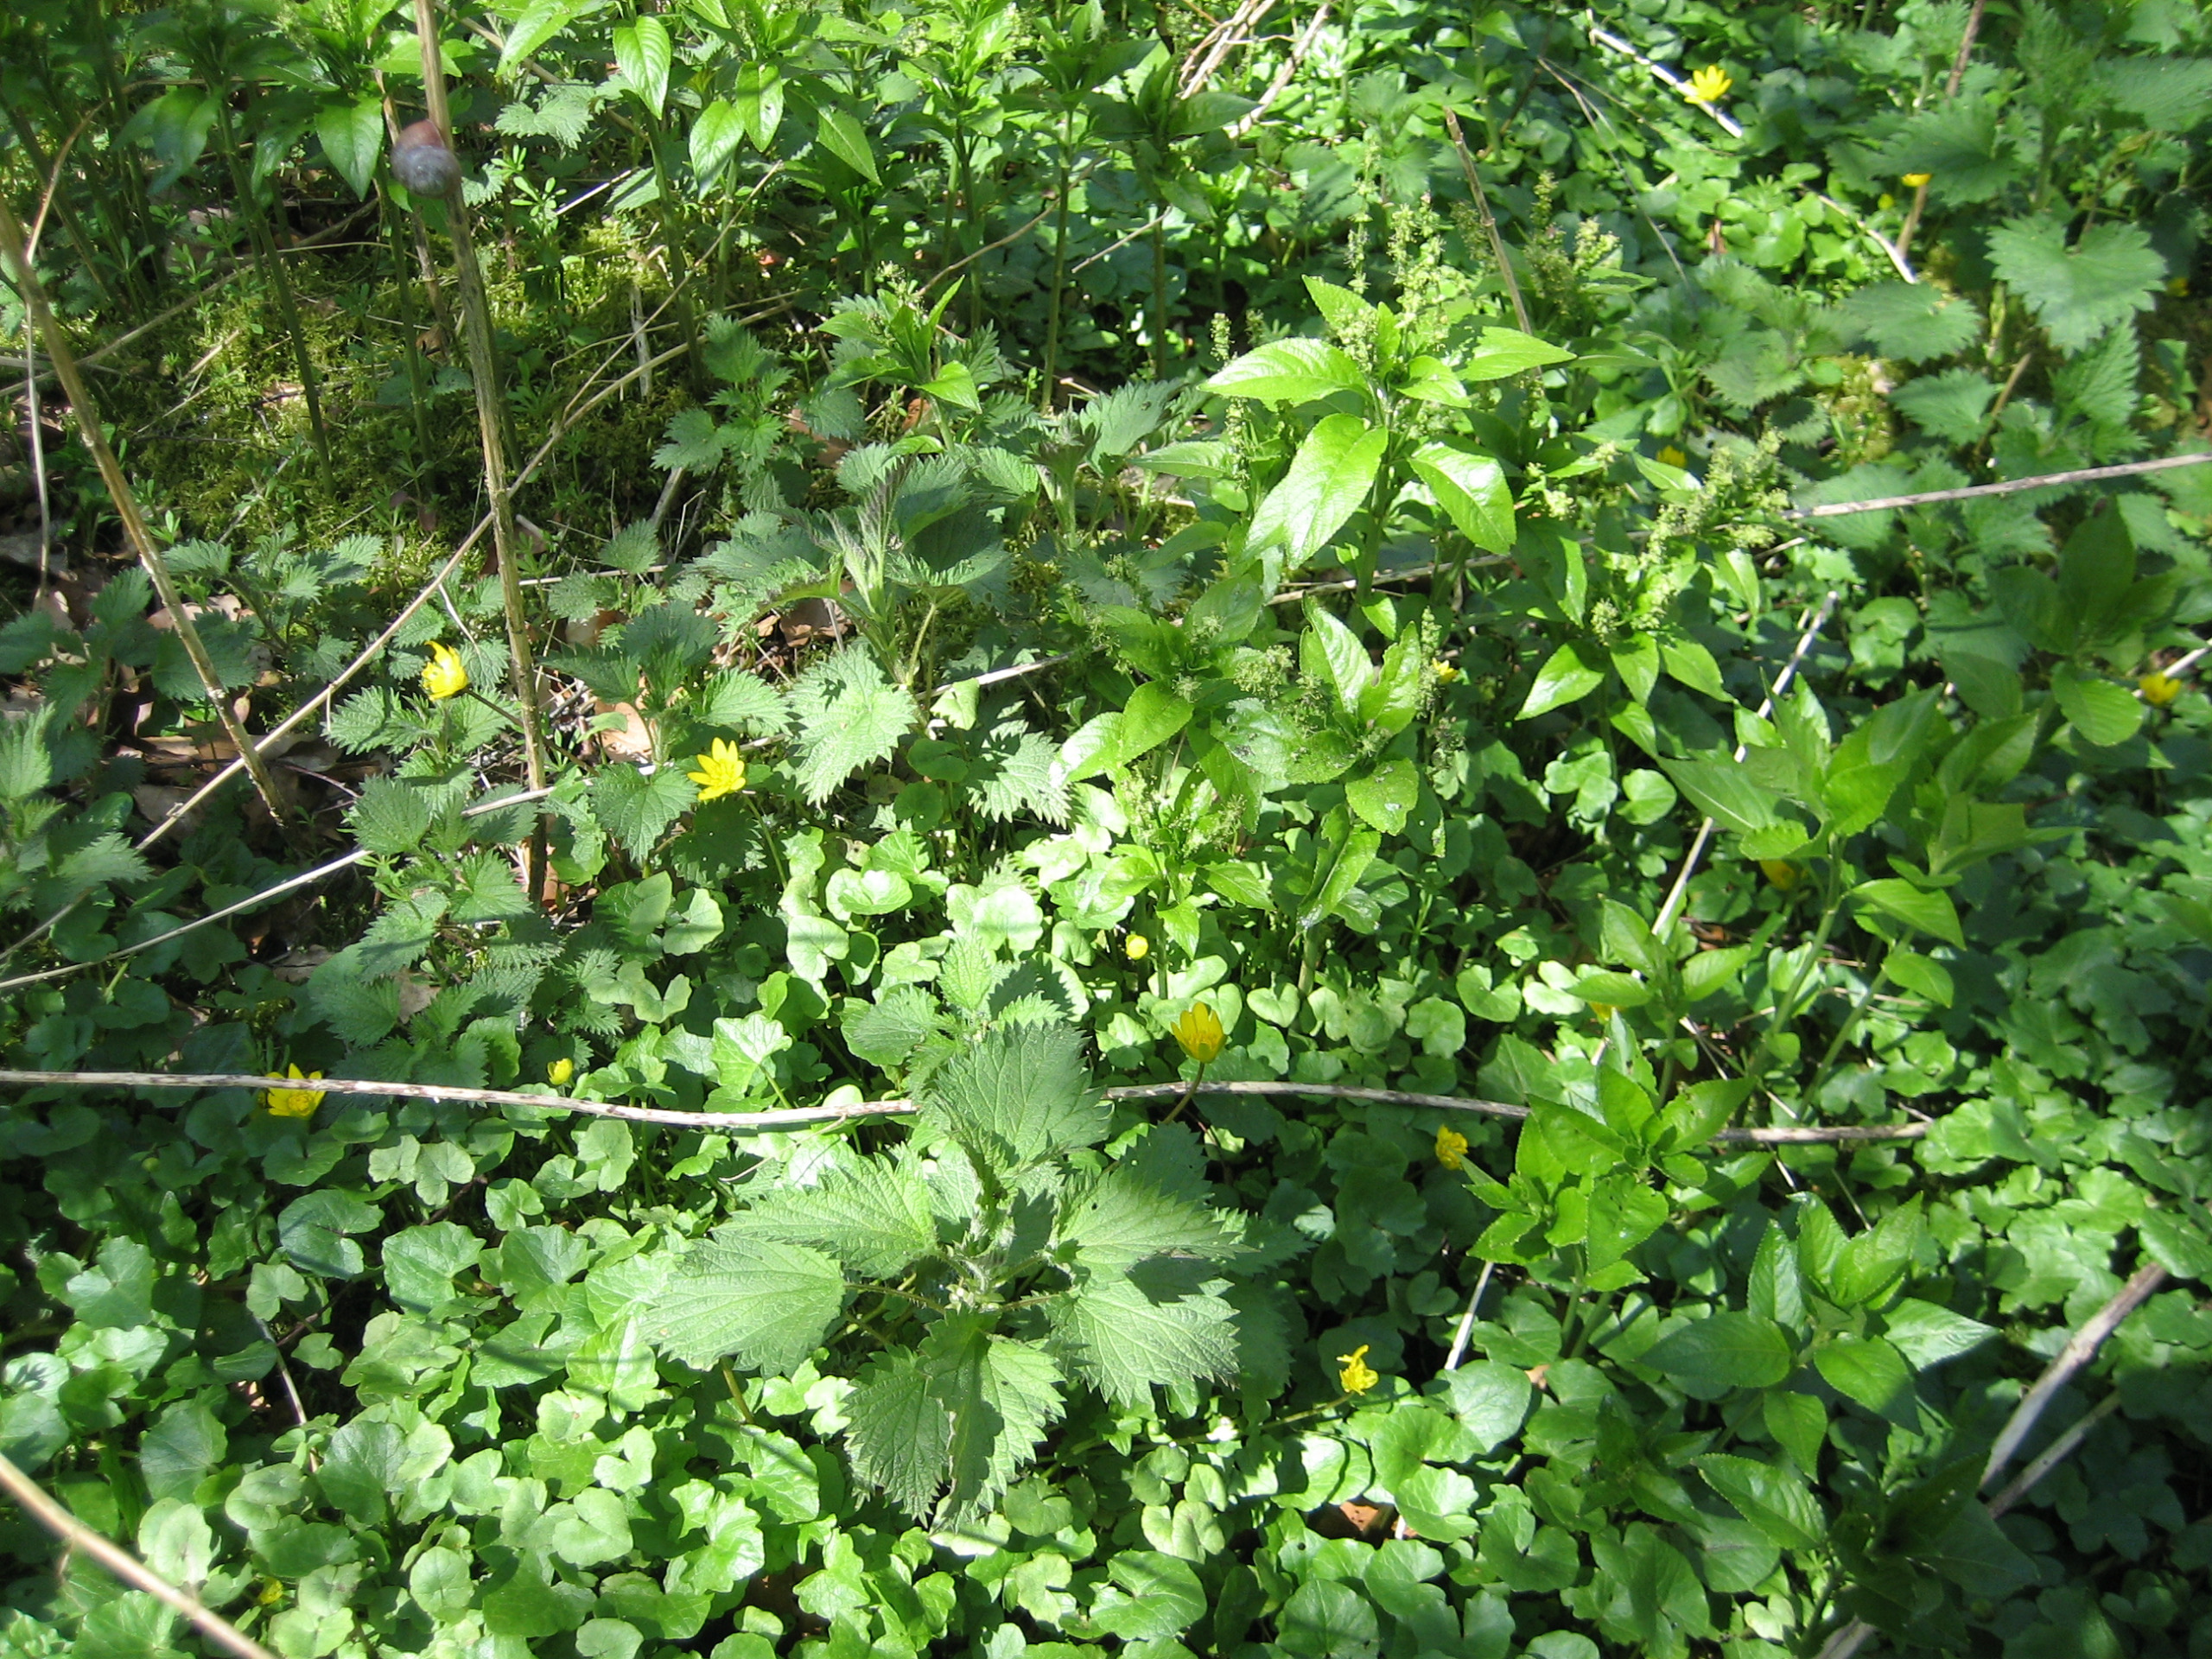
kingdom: Plantae
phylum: Tracheophyta
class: Magnoliopsida
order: Malpighiales
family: Euphorbiaceae
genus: Mercurialis
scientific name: Mercurialis perennis
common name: Almindelig bingelurt
